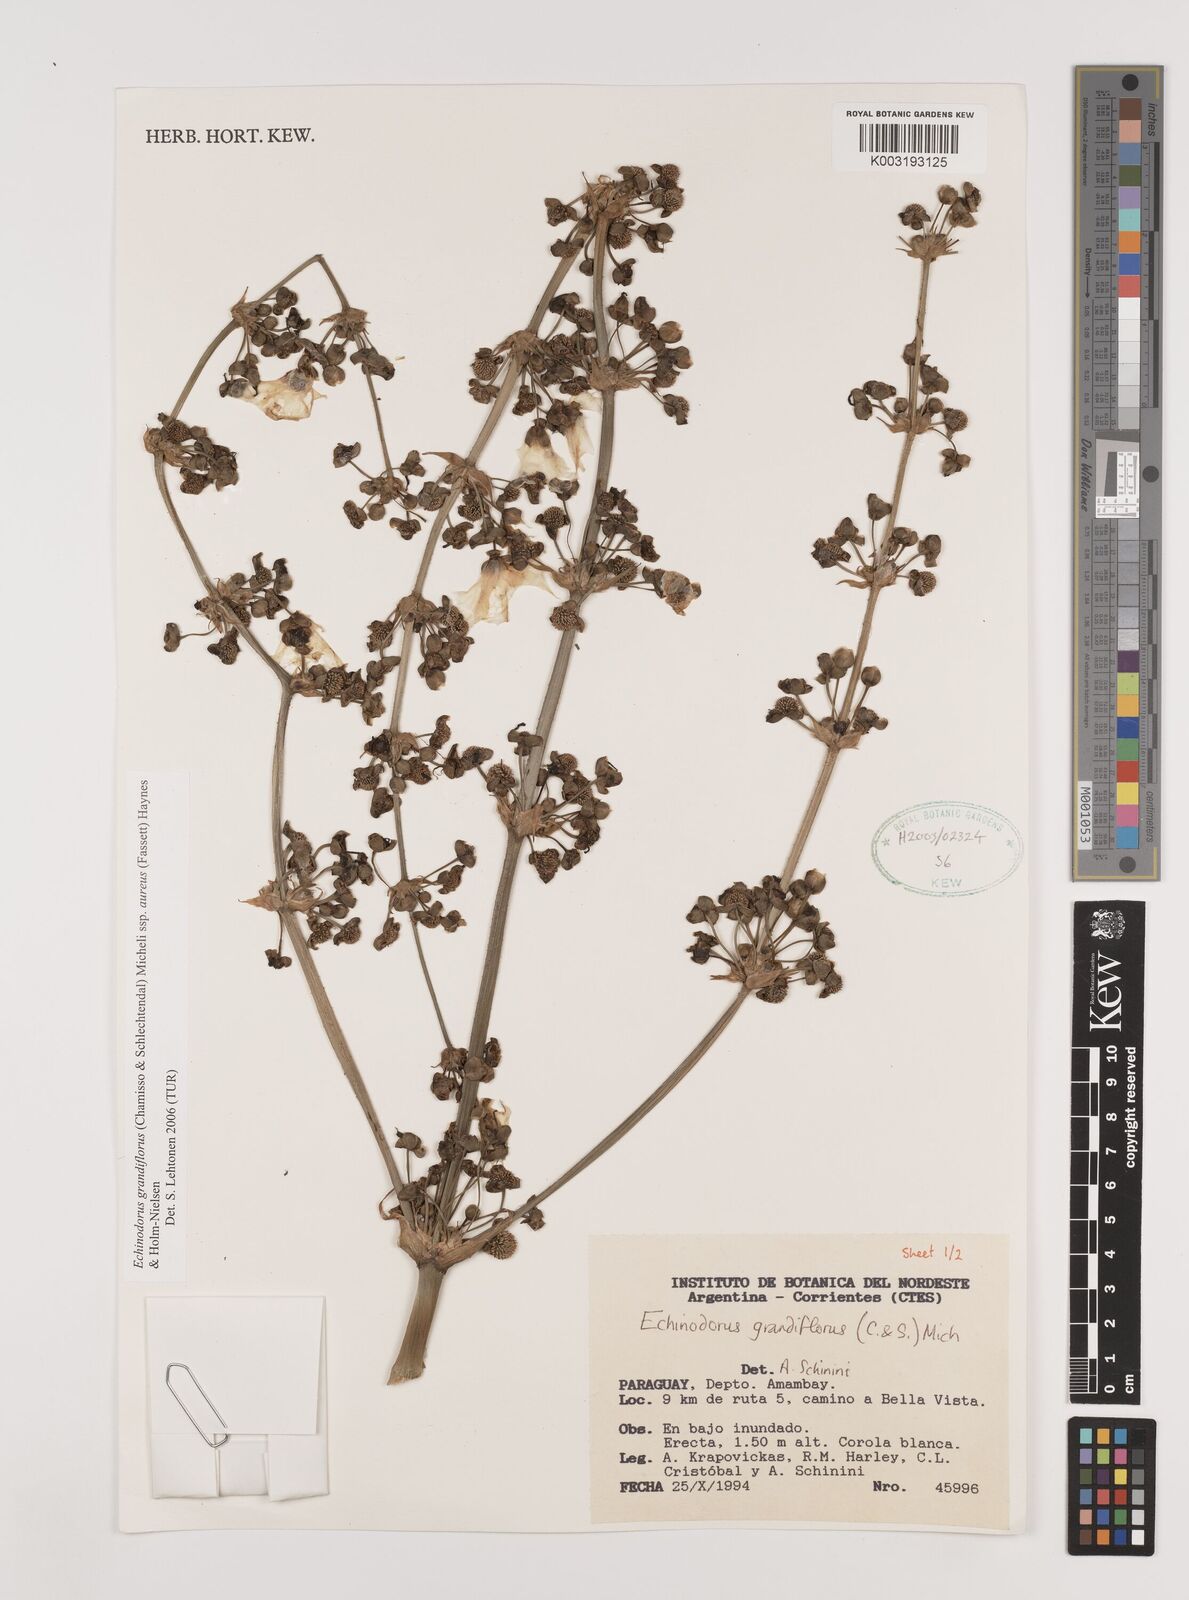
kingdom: Plantae
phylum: Tracheophyta
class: Liliopsida
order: Alismatales
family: Alismataceae
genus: Aquarius
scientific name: Aquarius floribundus
